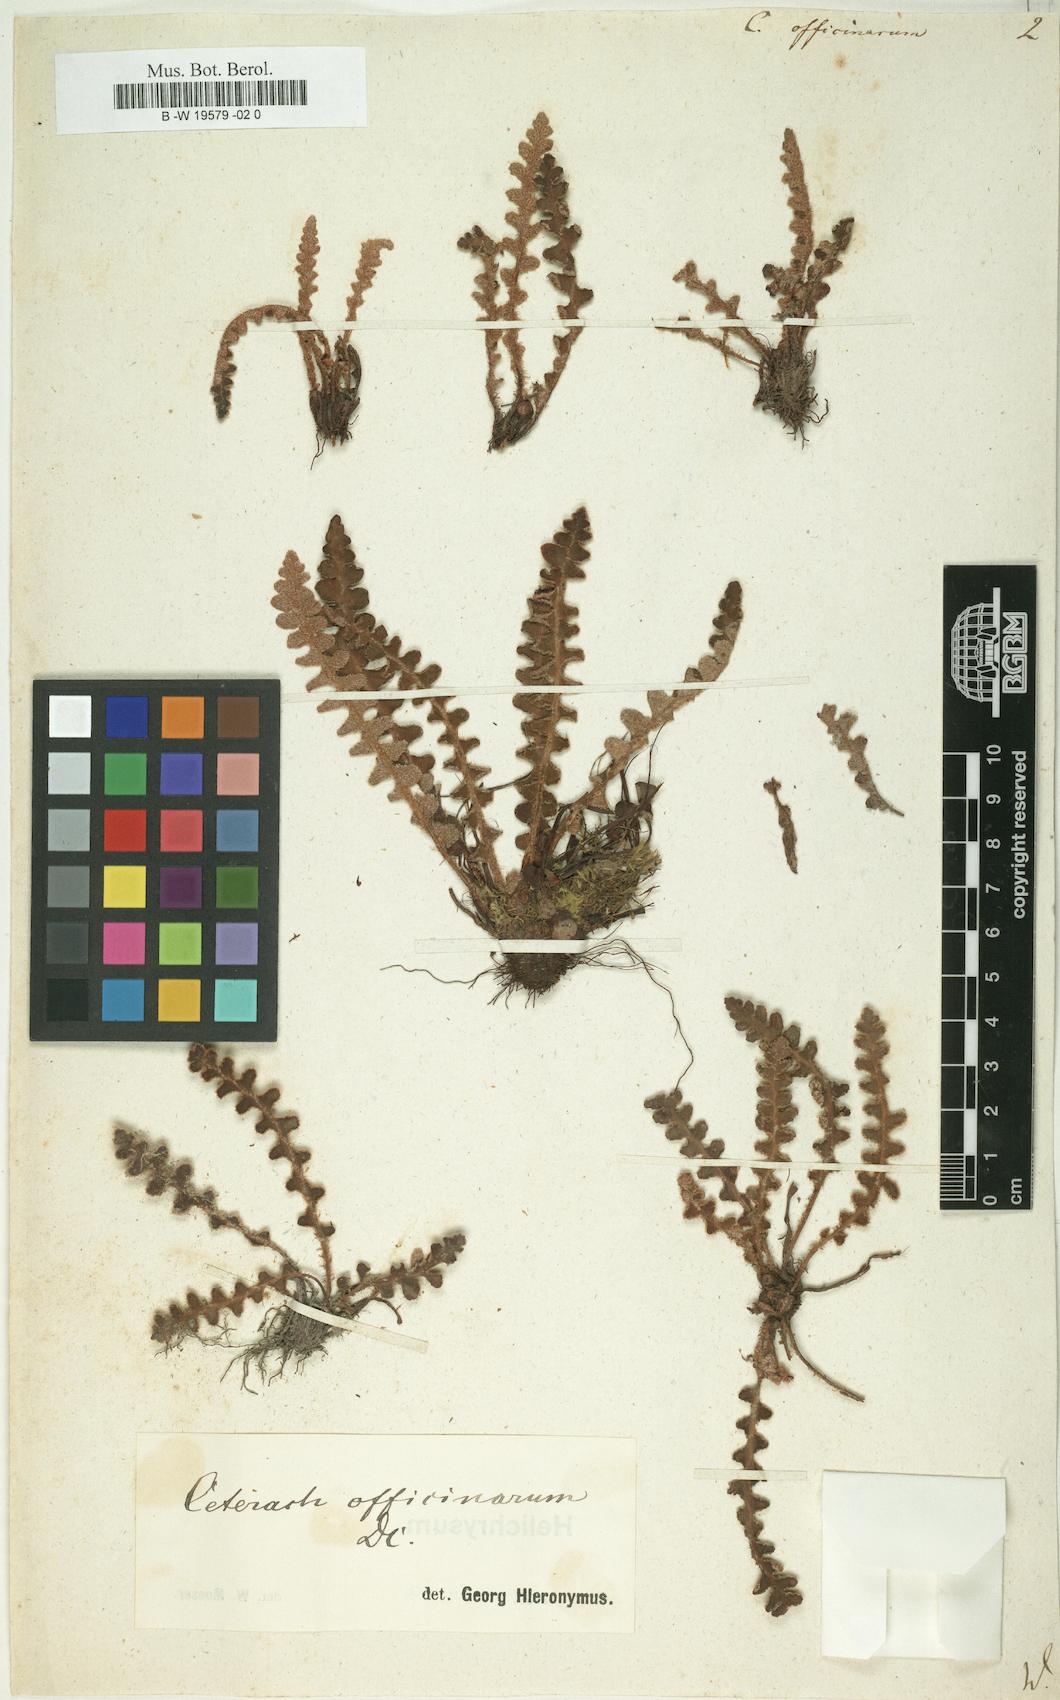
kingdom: Plantae
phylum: Tracheophyta
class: Polypodiopsida
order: Polypodiales
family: Aspleniaceae
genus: Asplenium
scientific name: Asplenium ceterach
